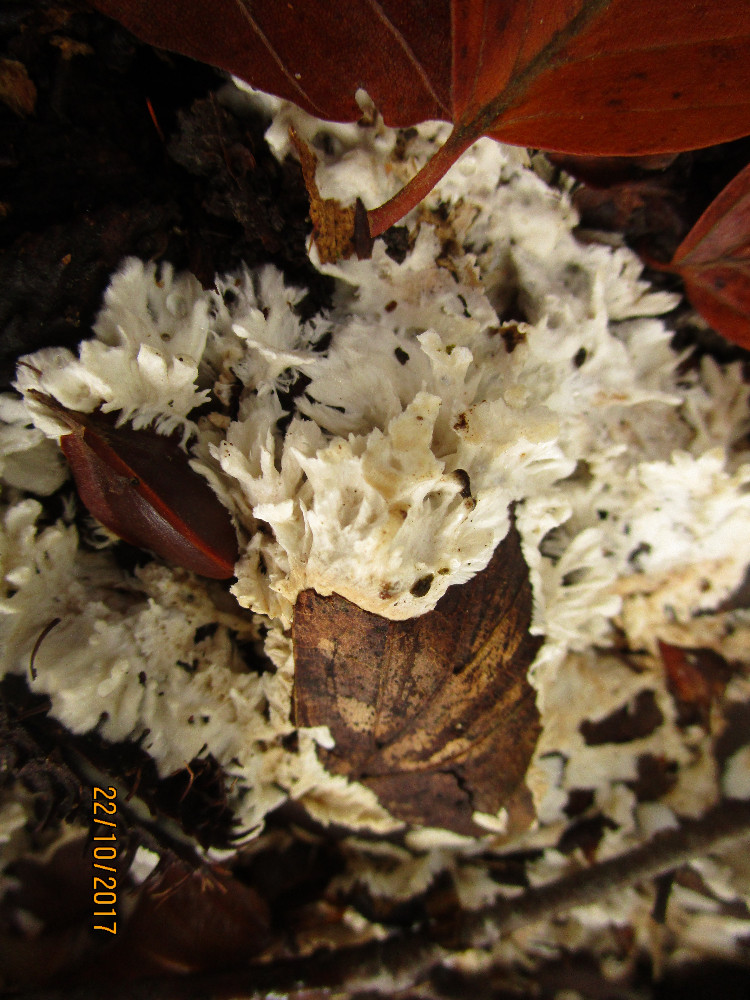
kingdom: Fungi
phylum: Basidiomycota
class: Agaricomycetes
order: Trechisporales
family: Sistotremataceae
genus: Trechispora
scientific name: Trechispora fastidiosa
